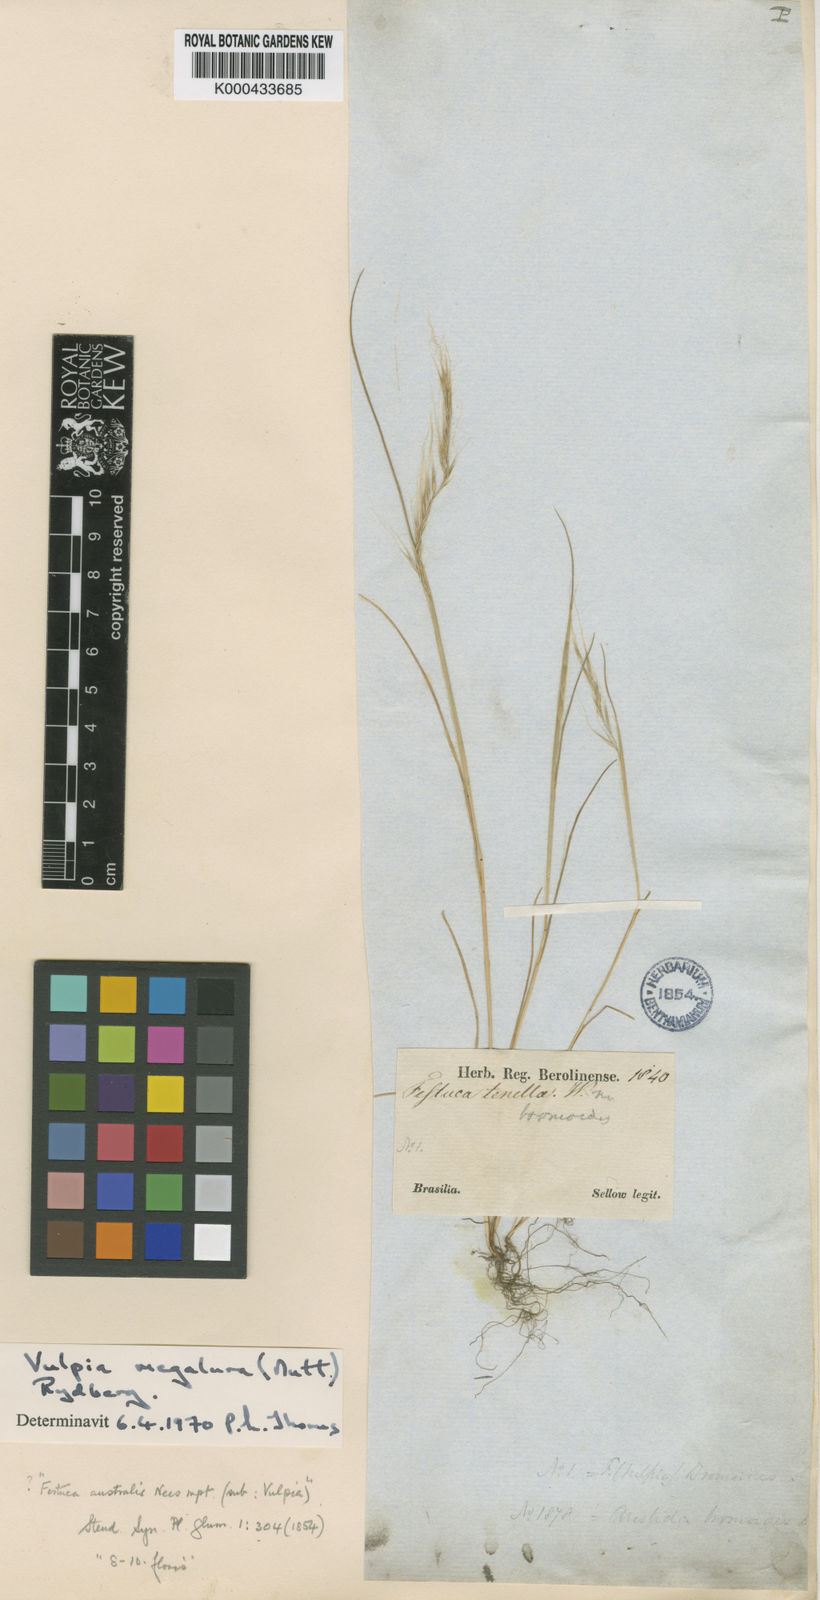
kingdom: Plantae
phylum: Tracheophyta
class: Liliopsida
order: Poales
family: Poaceae
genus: Festuca
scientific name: Festuca myuros
